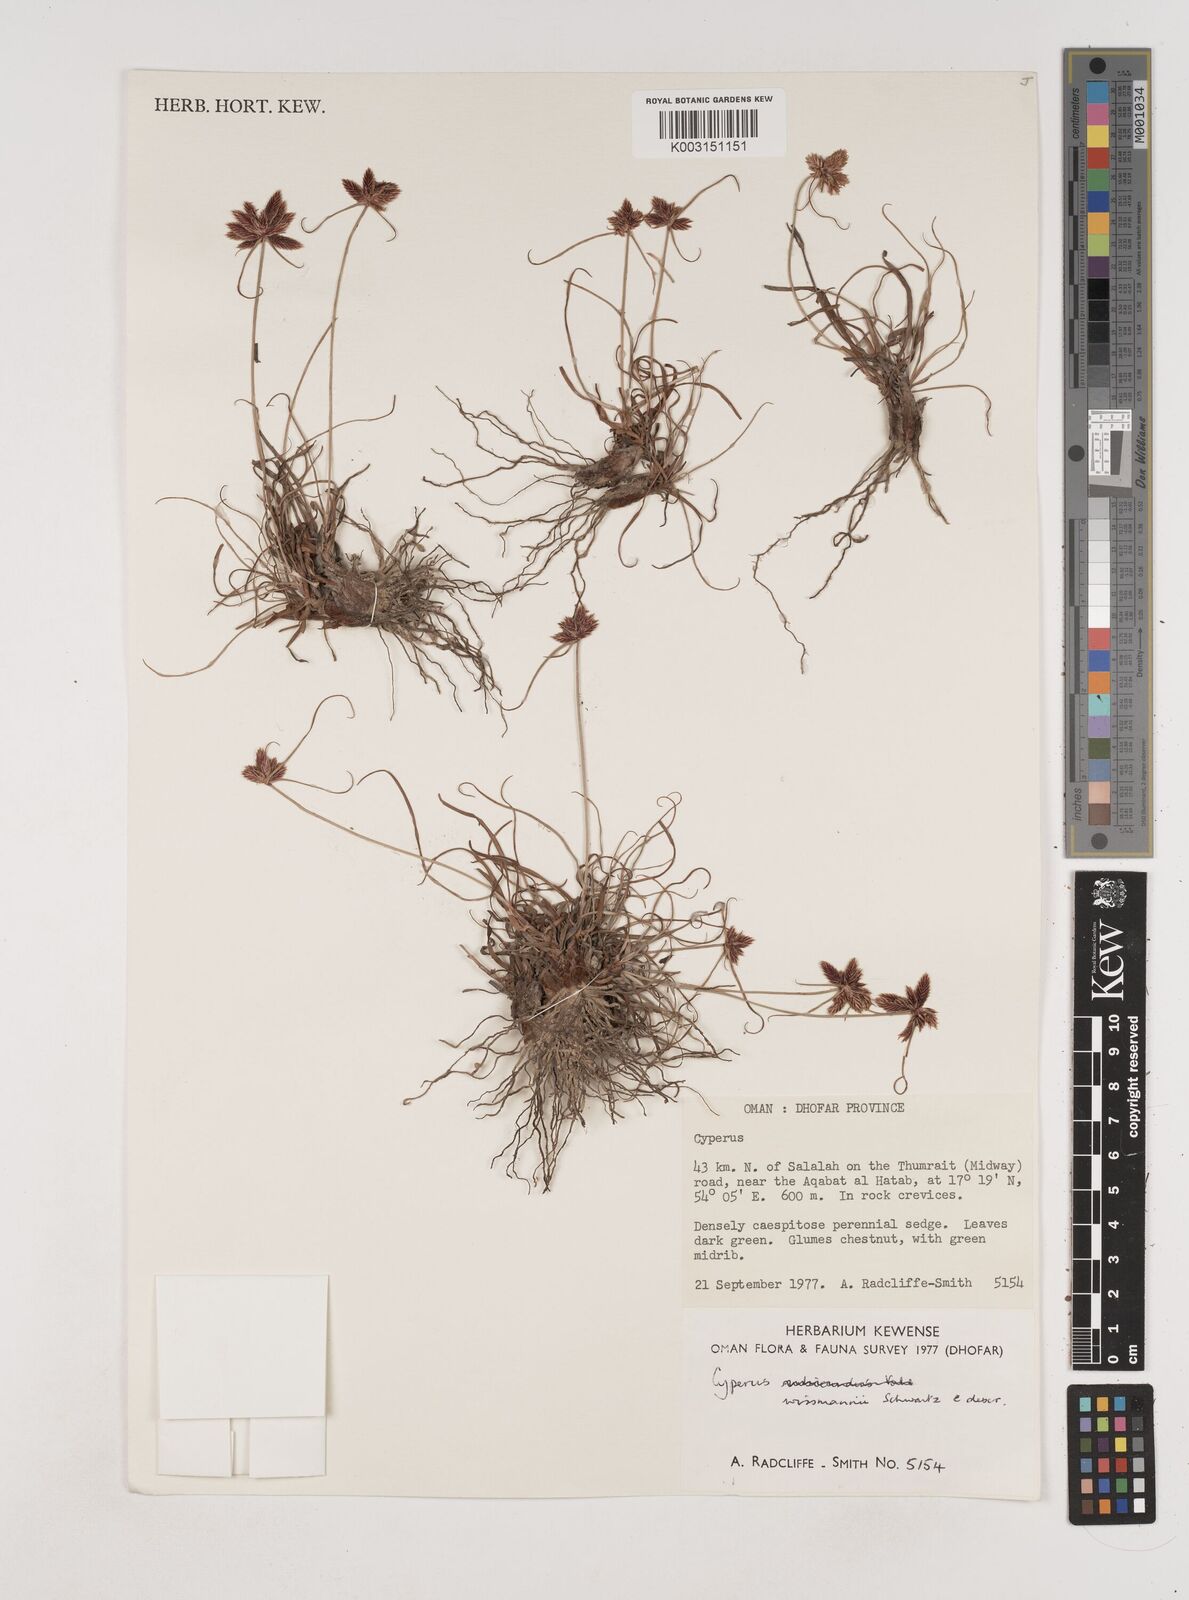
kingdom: Plantae
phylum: Tracheophyta
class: Liliopsida
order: Poales
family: Cyperaceae
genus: Cyperus
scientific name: Cyperus rubicundus
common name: Coco-grass
